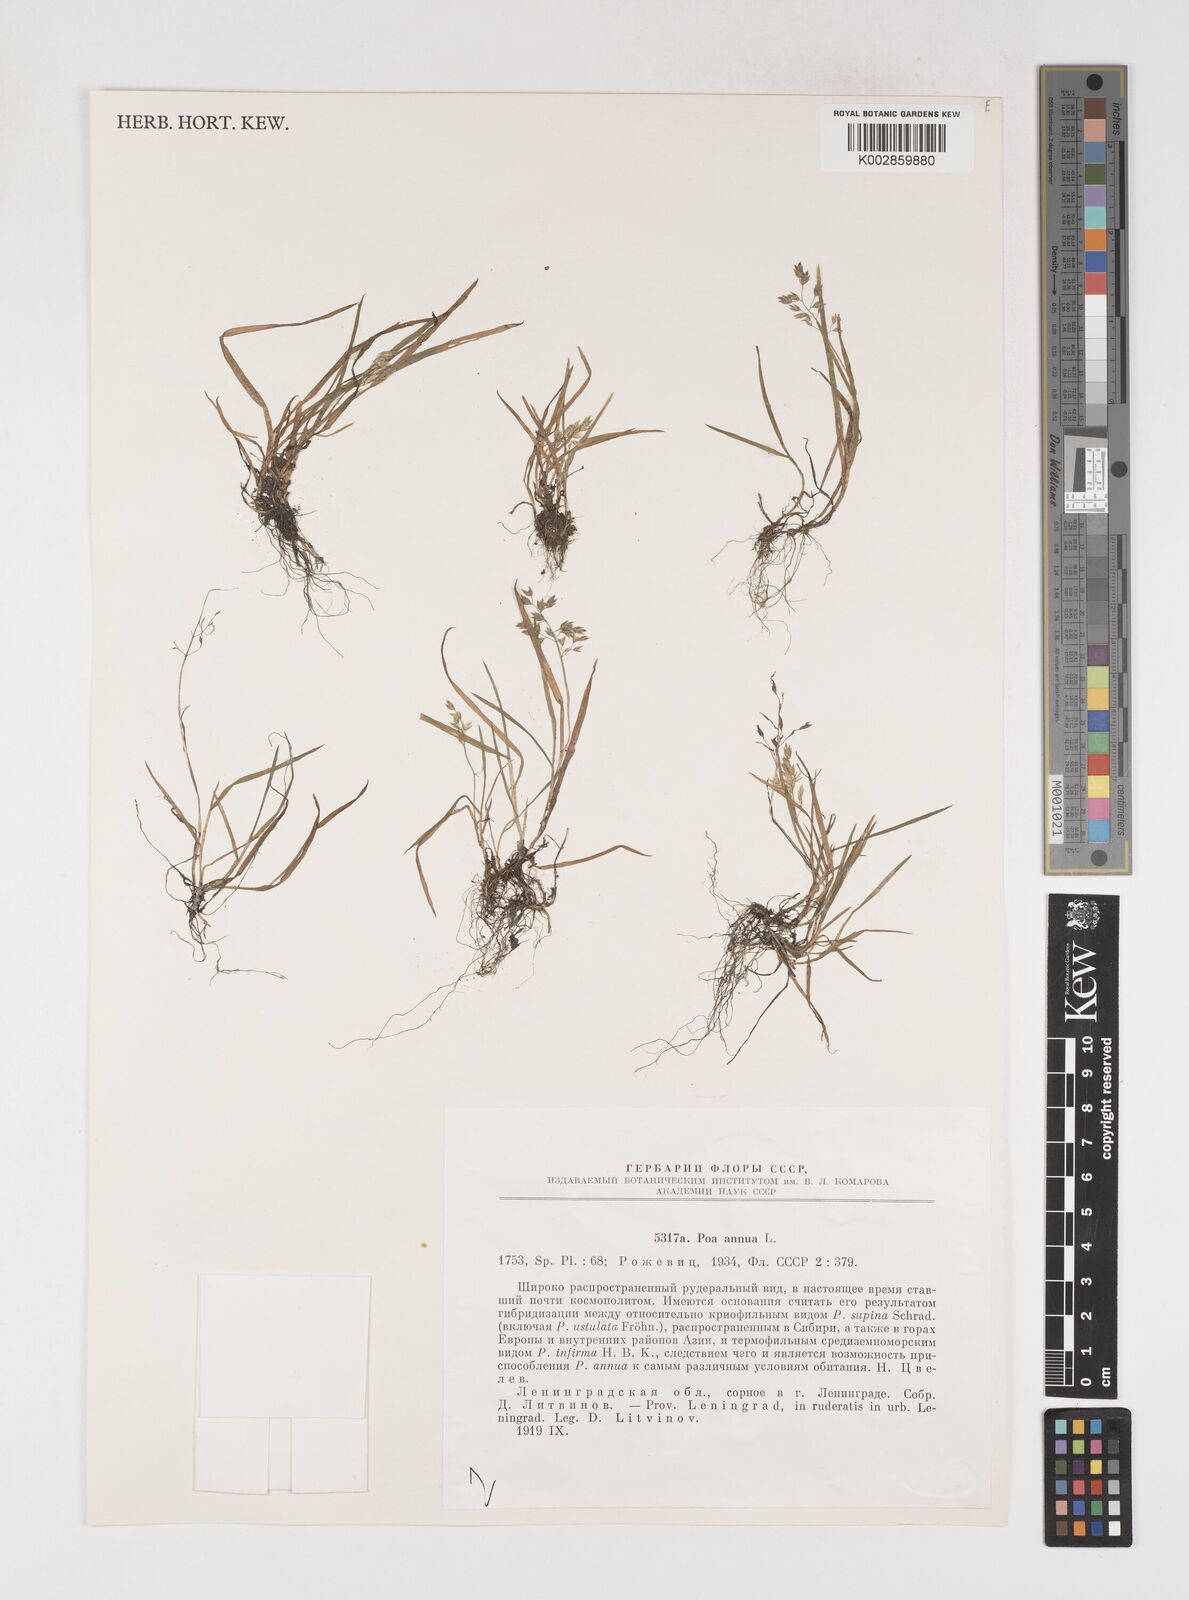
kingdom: Plantae
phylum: Tracheophyta
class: Liliopsida
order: Poales
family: Poaceae
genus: Poa
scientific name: Poa annua
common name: Annual bluegrass
